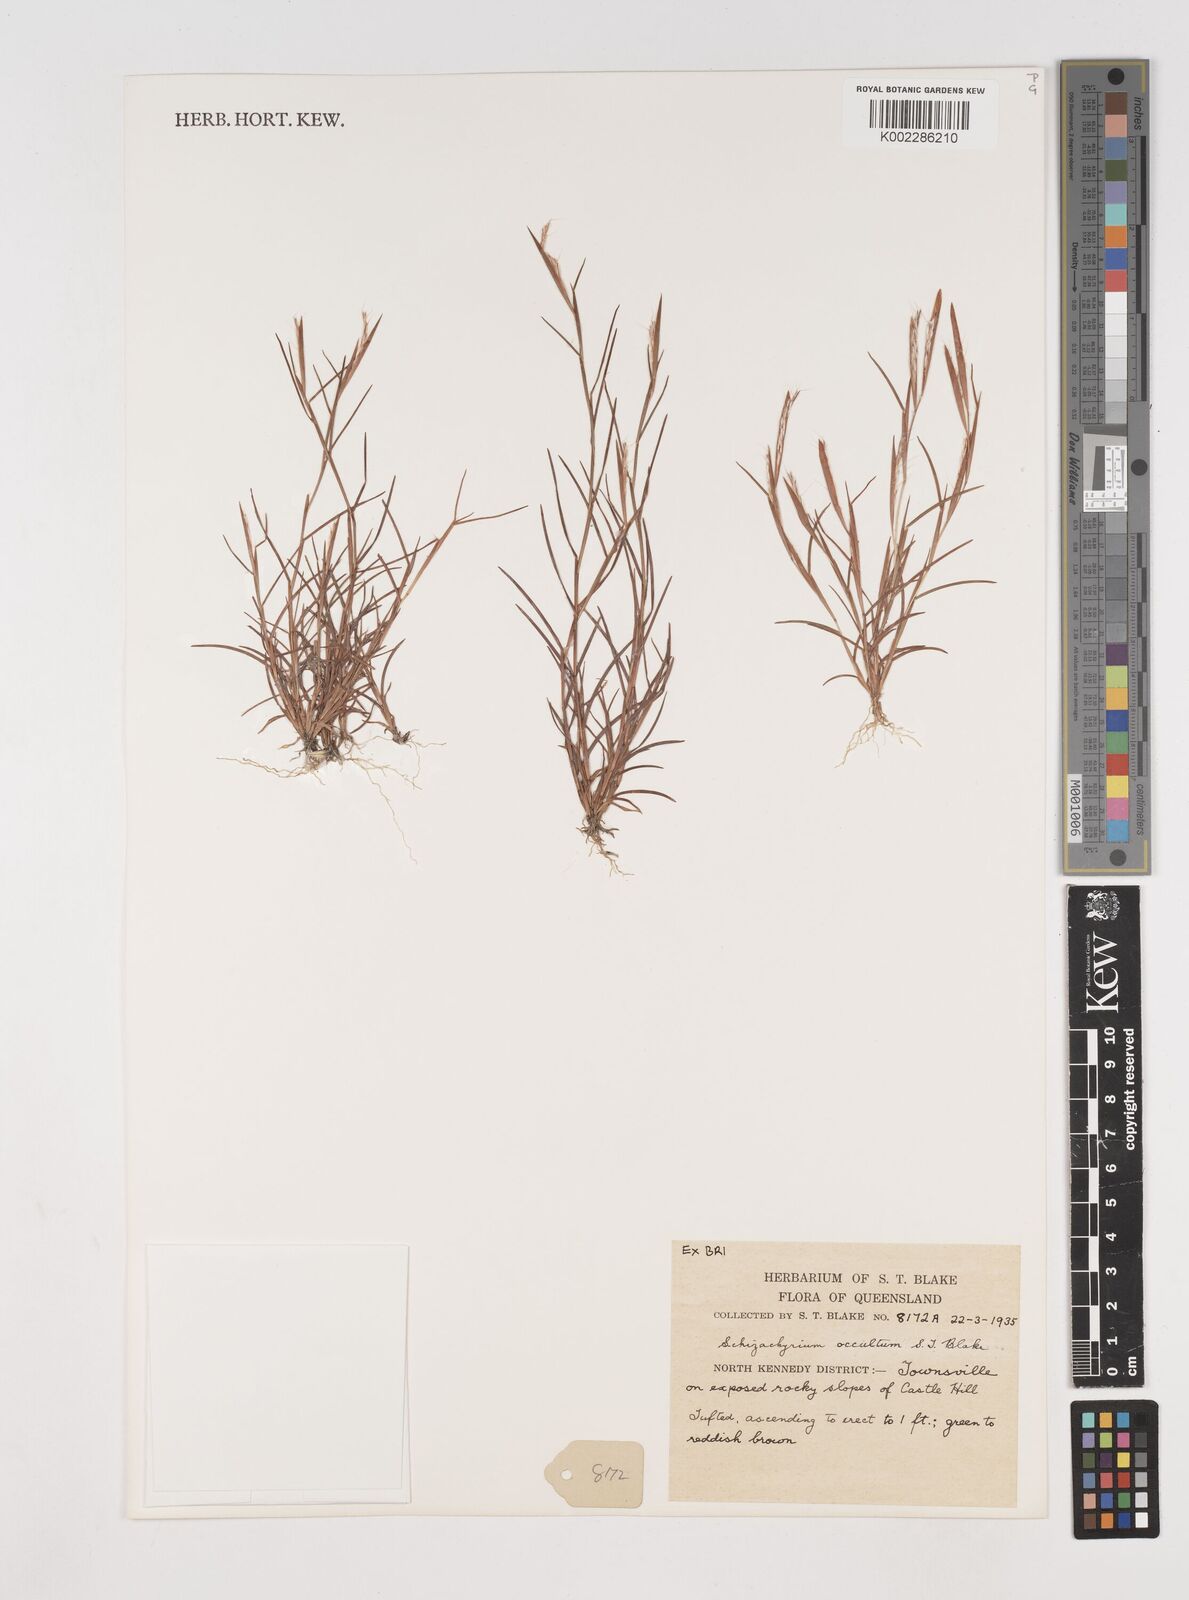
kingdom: Plantae
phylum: Tracheophyta
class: Liliopsida
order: Poales
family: Poaceae
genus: Schizachyrium
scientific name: Schizachyrium occultum
